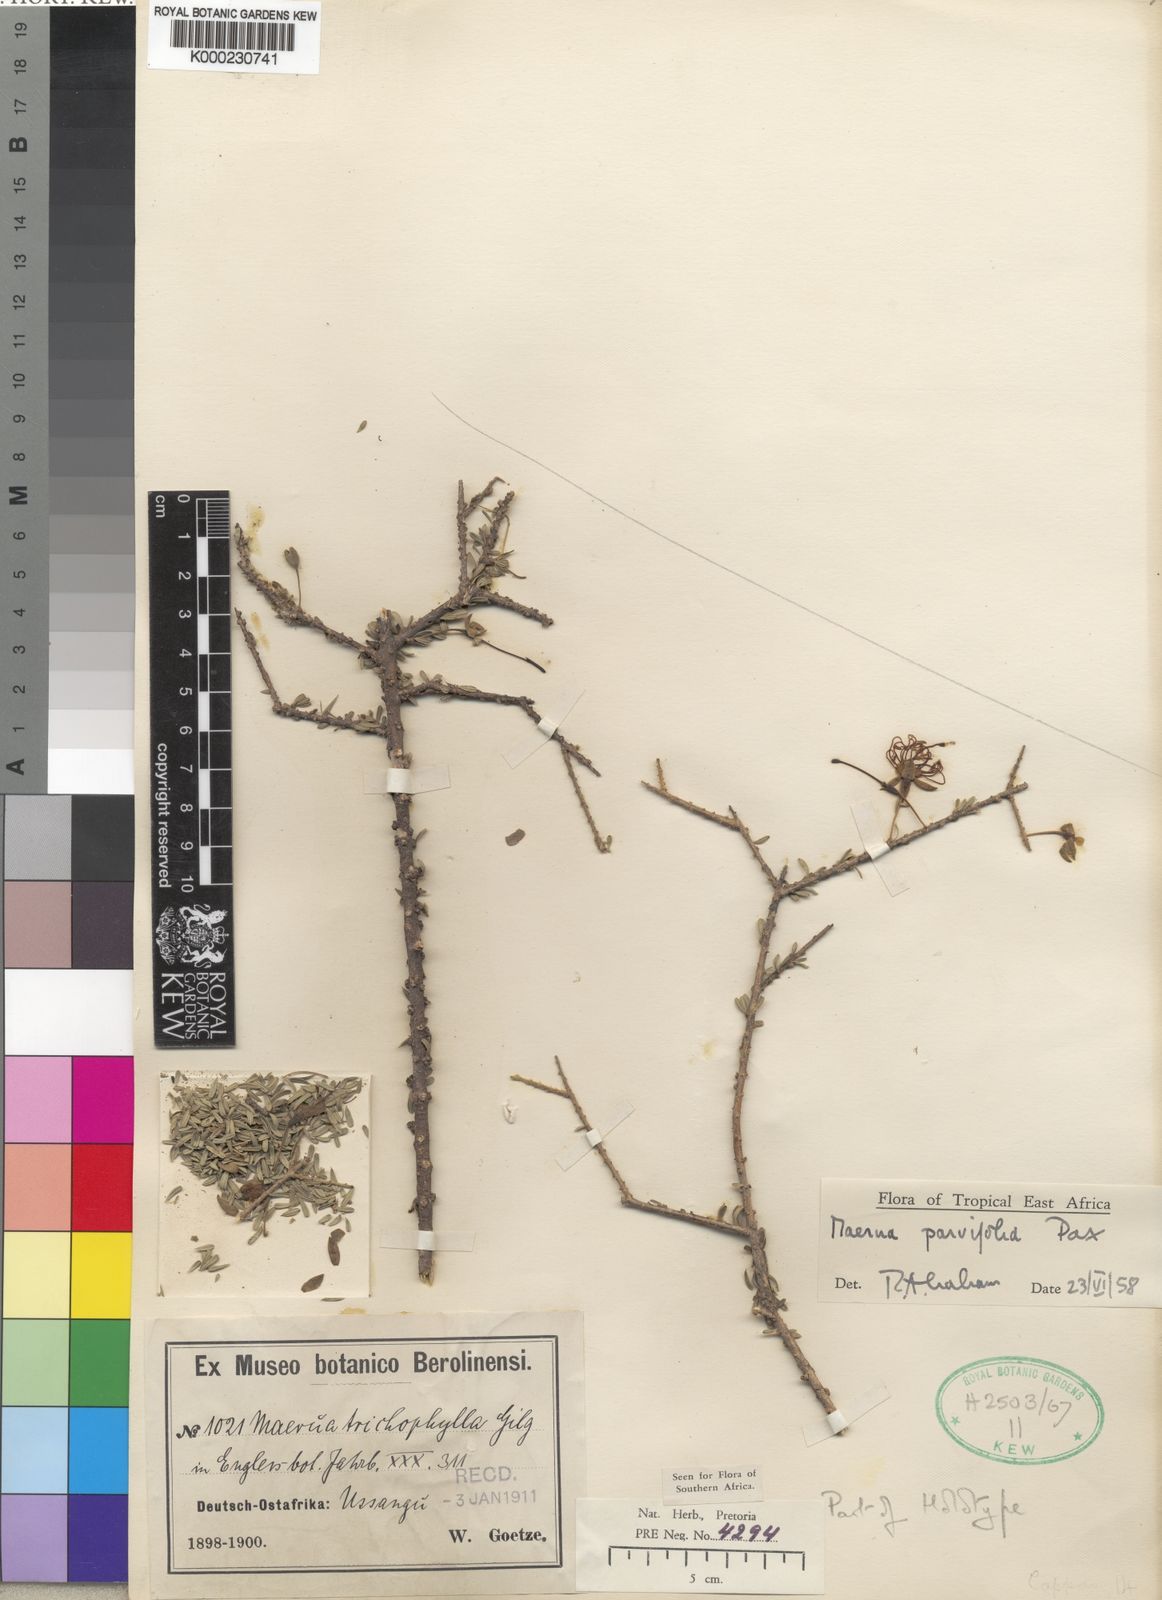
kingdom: Plantae
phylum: Tracheophyta
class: Magnoliopsida
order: Brassicales
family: Capparaceae
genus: Maerua
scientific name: Maerua parvifolia
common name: Dwarf bush-cherry
